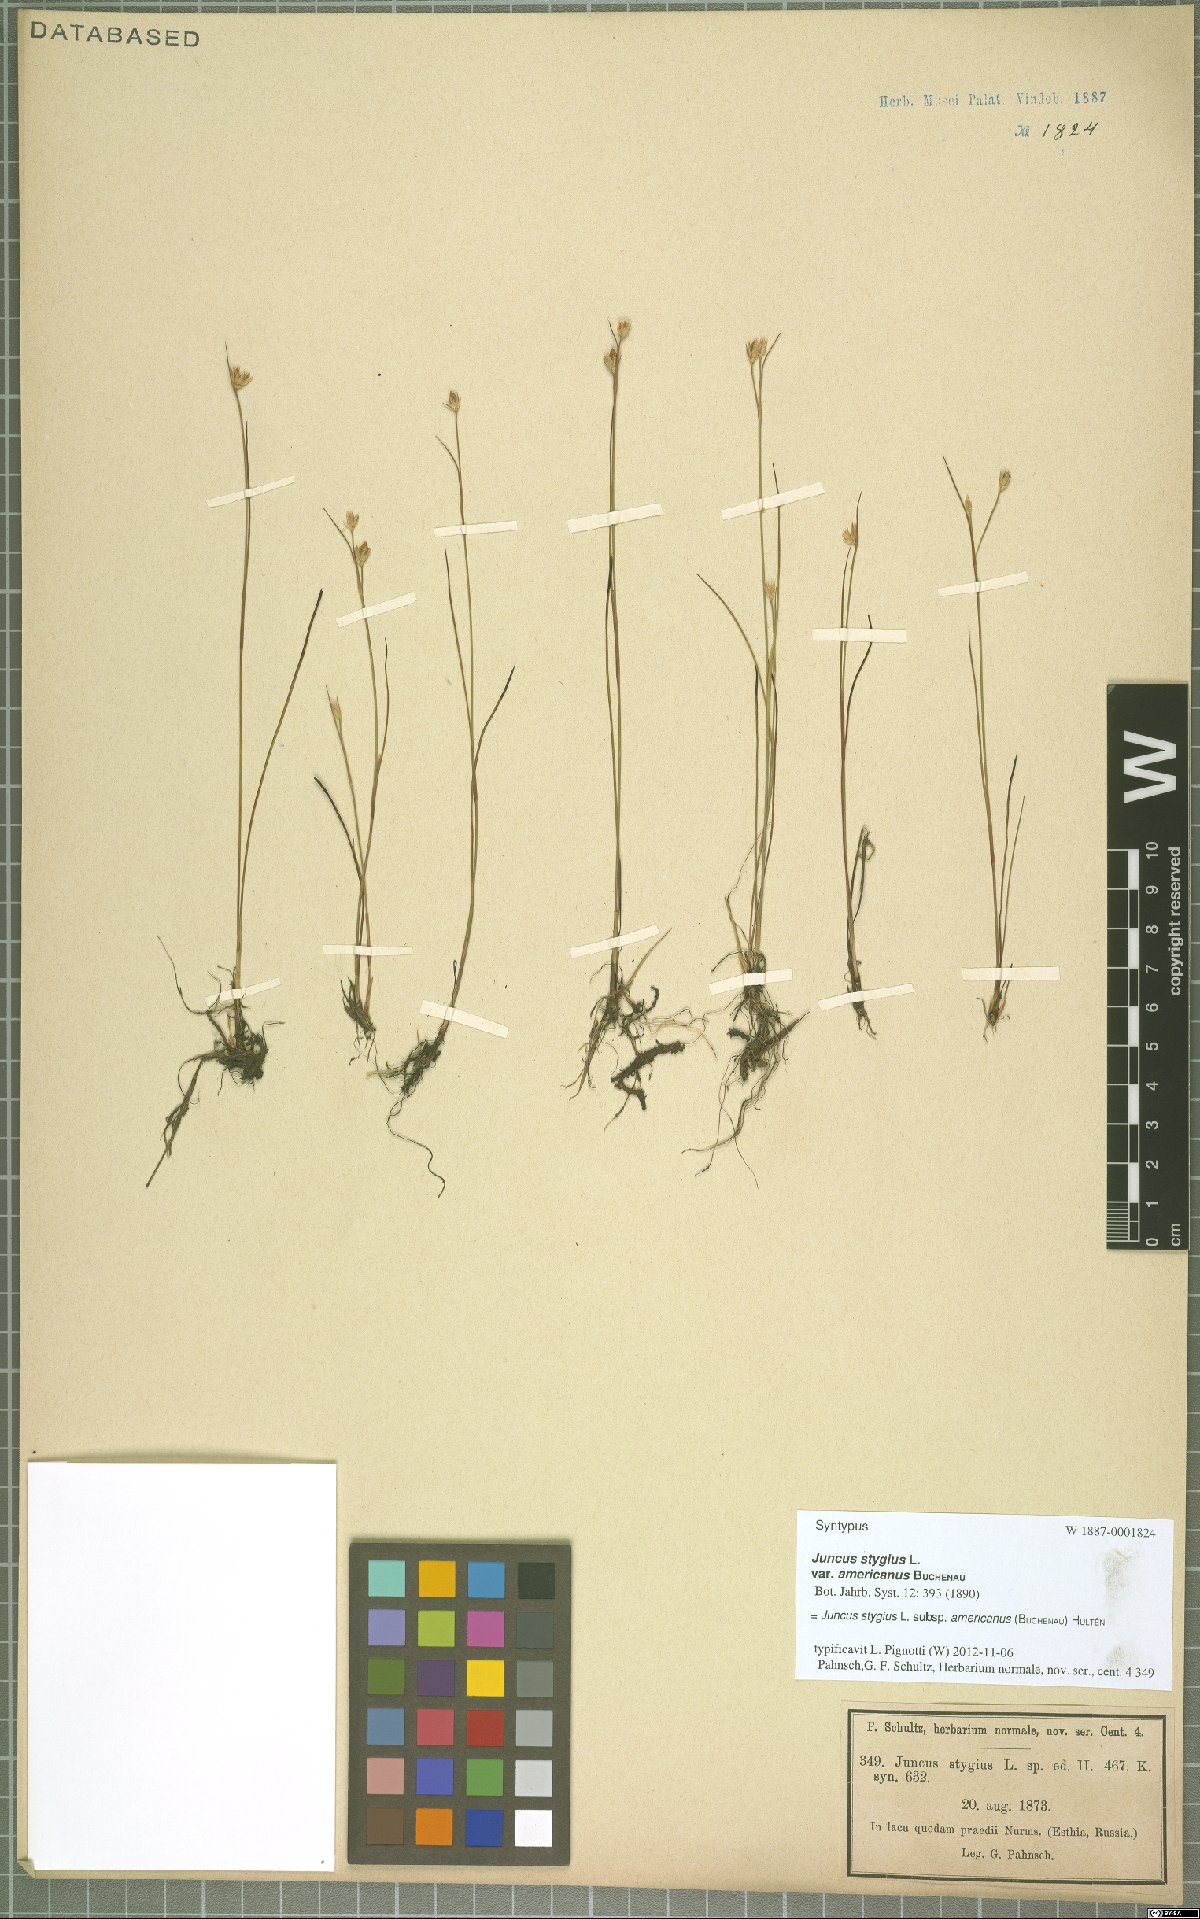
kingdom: Plantae
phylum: Tracheophyta
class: Liliopsida
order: Poales
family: Juncaceae
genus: Juncus
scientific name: Juncus stygius
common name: Bog rush
